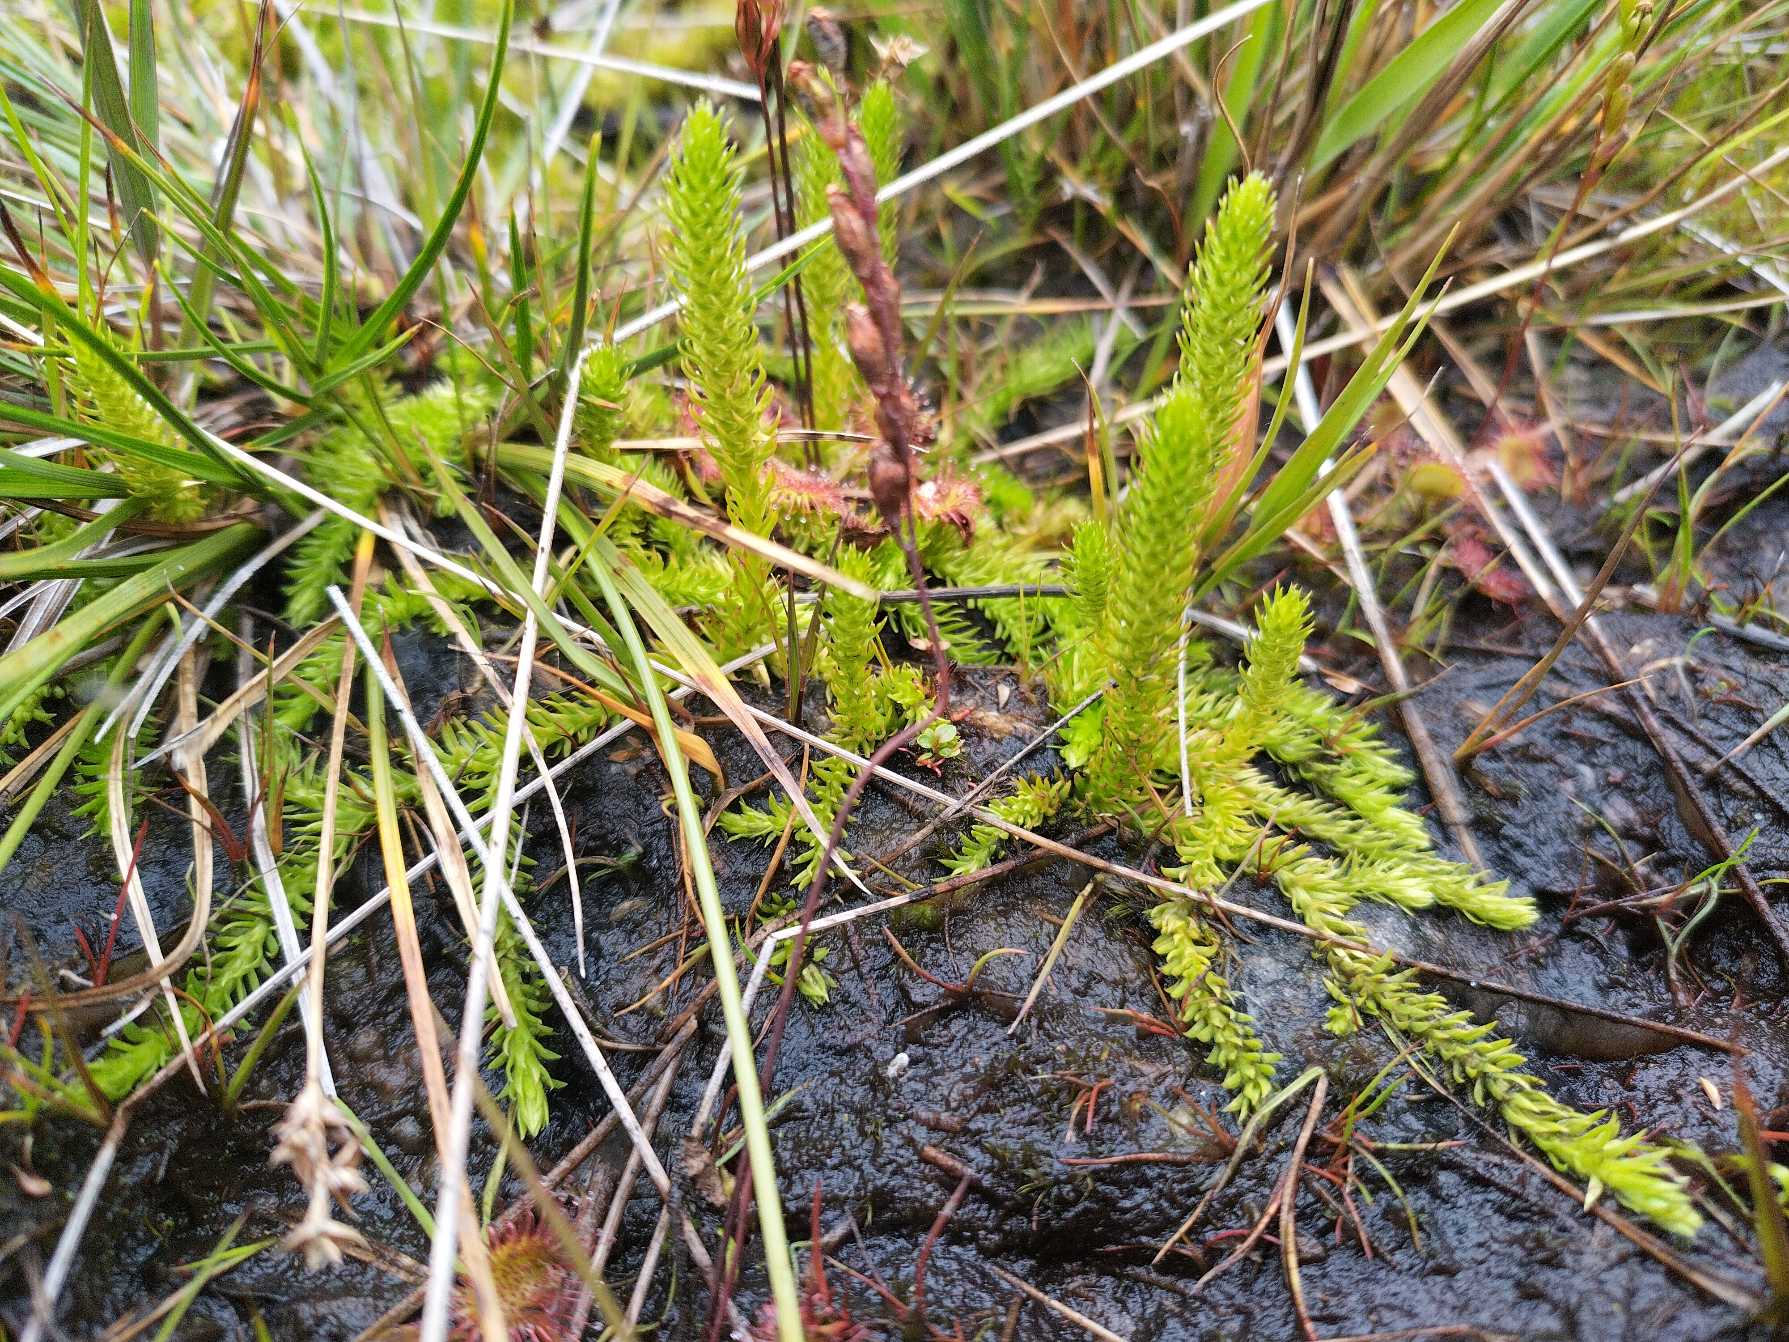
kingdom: Plantae
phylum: Tracheophyta
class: Lycopodiopsida
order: Lycopodiales
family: Lycopodiaceae
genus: Lycopodiella
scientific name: Lycopodiella inundata
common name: Liden ulvefod
